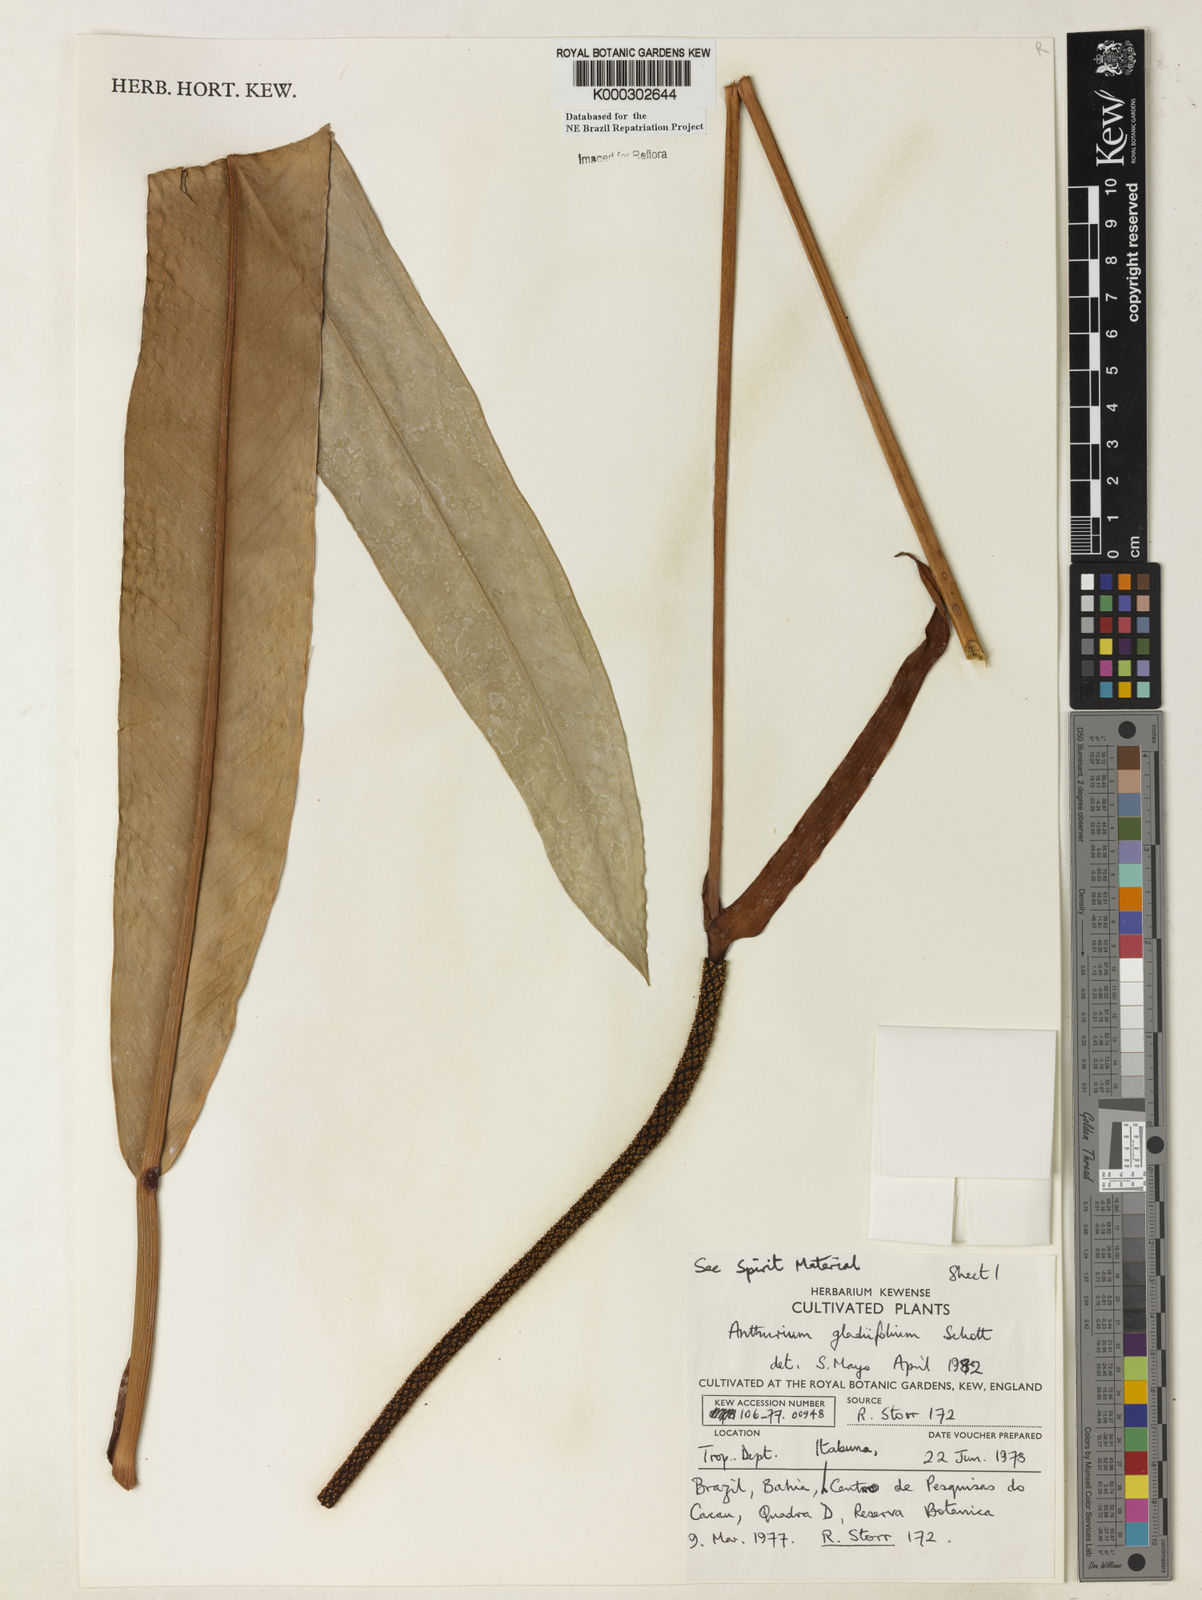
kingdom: Plantae
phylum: Tracheophyta
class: Liliopsida
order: Alismatales
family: Araceae
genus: Anthurium
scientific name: Anthurium gladiifolium
